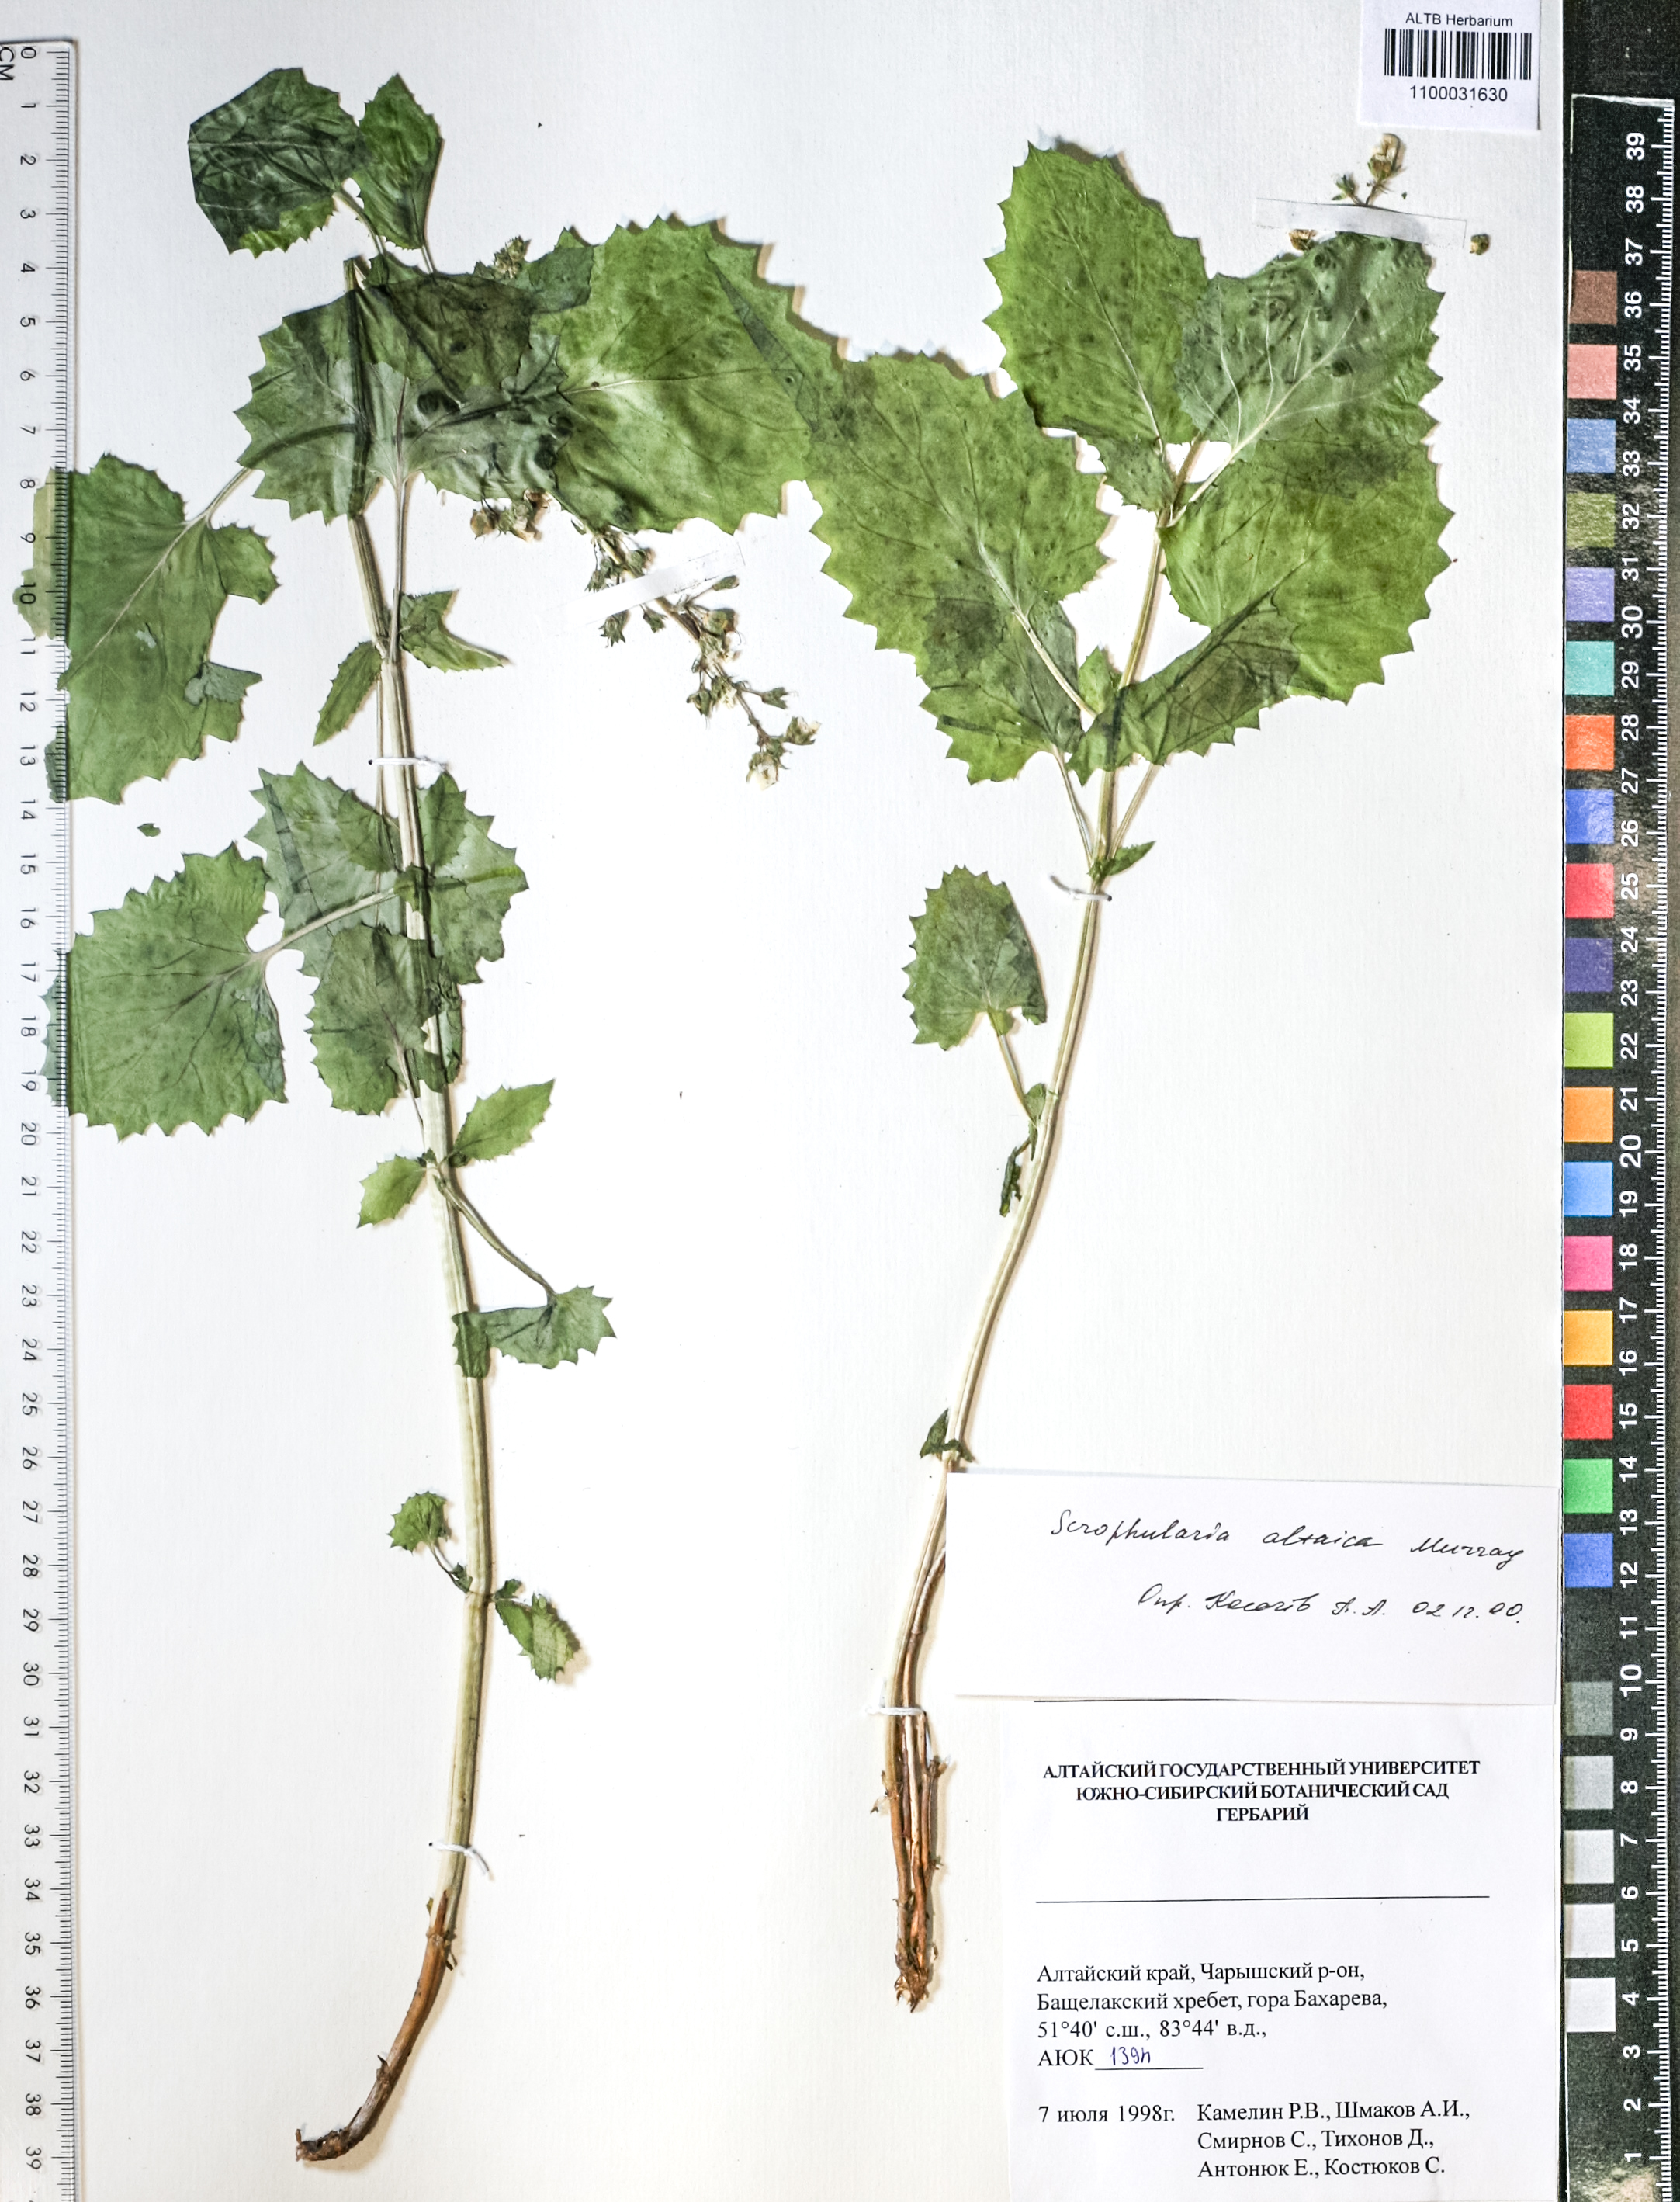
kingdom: Plantae
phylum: Tracheophyta
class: Magnoliopsida
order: Lamiales
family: Scrophulariaceae
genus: Scrophularia
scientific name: Scrophularia altaica
